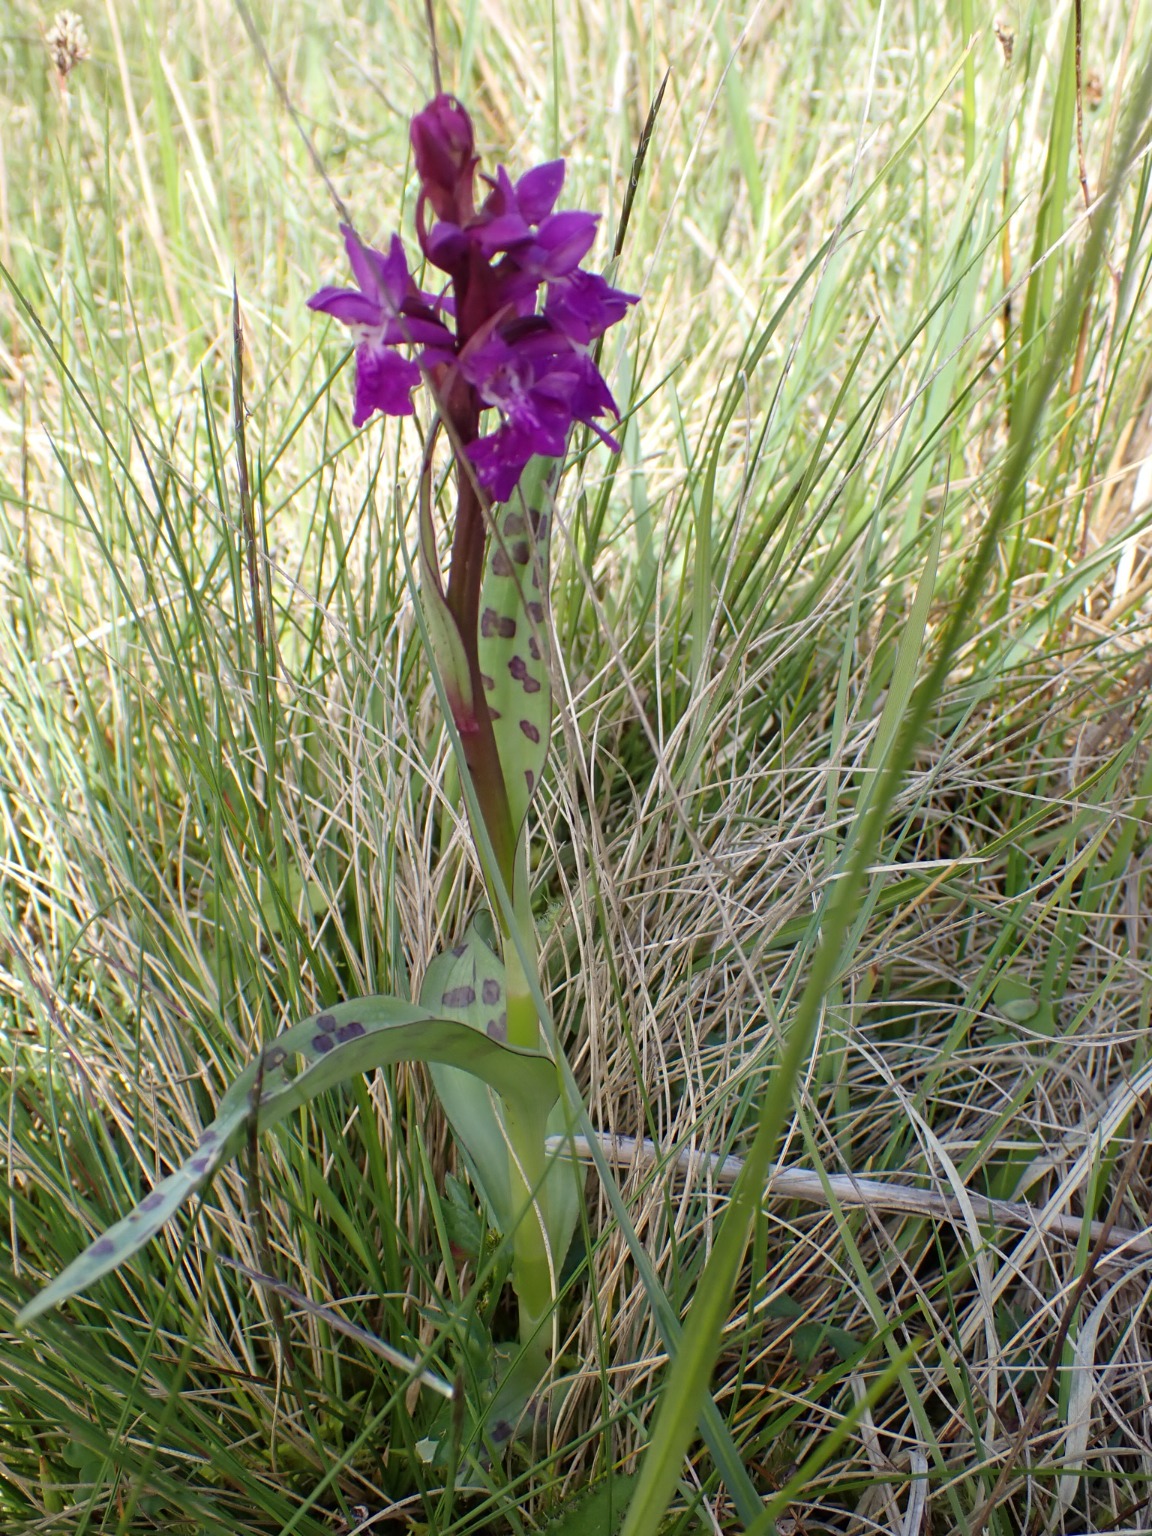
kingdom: Plantae
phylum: Tracheophyta
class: Liliopsida
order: Asparagales
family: Orchidaceae
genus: Dactylorhiza
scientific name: Dactylorhiza majalis
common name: Maj-gøgeurt
